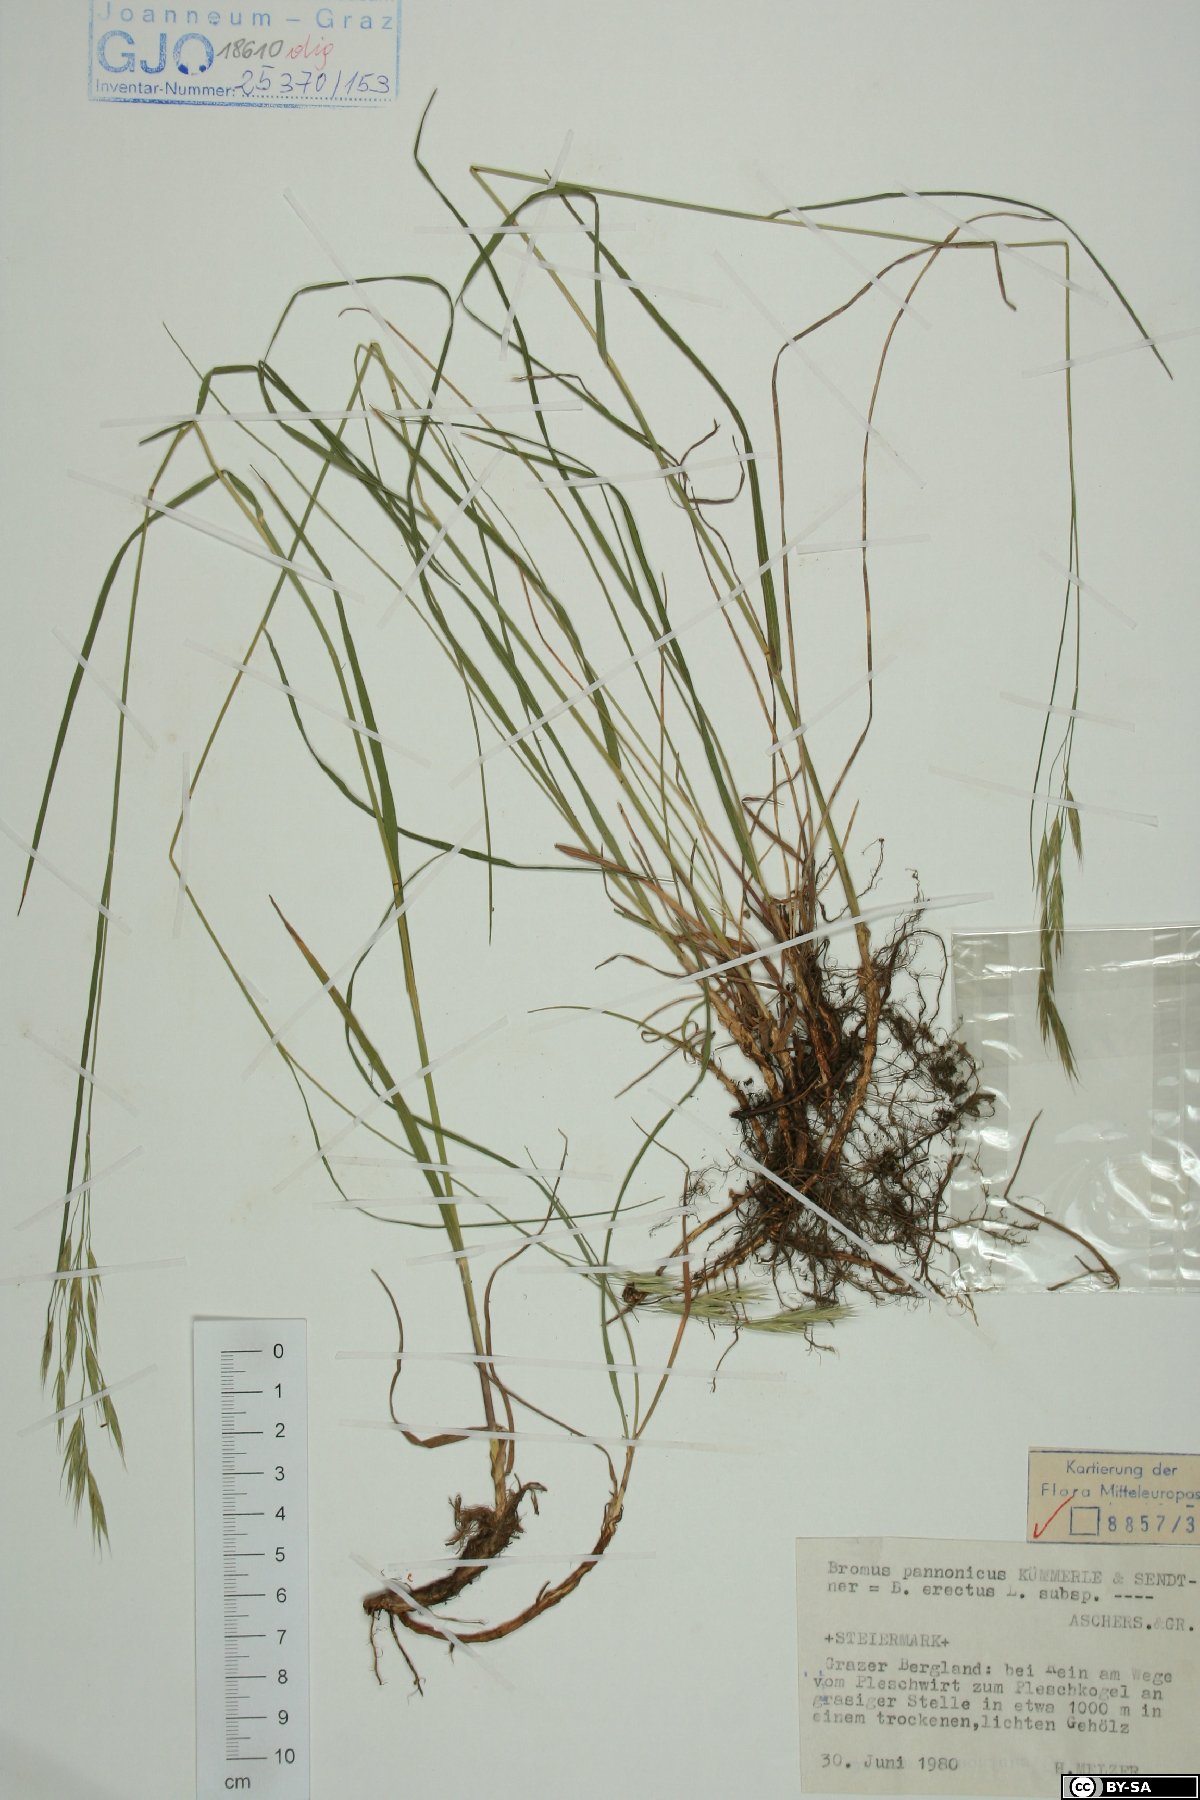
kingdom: Plantae
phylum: Tracheophyta
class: Liliopsida
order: Poales
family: Poaceae
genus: Bromus
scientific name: Bromus pannonicus
